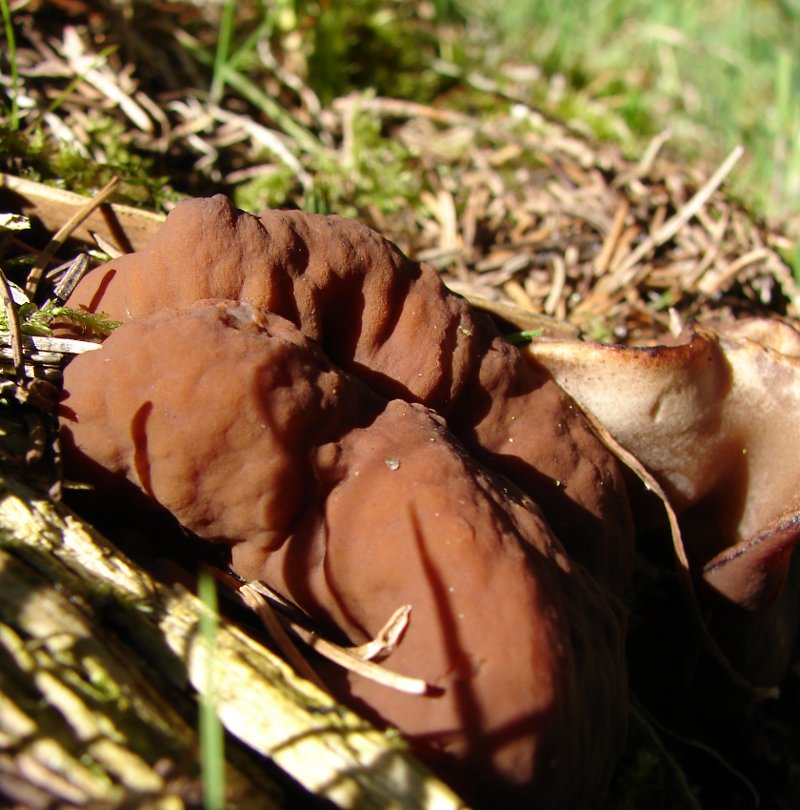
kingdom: Fungi
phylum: Ascomycota
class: Pezizomycetes
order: Pezizales
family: Discinaceae
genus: Discina
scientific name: Discina ancilis
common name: udbredt stenmorkel
